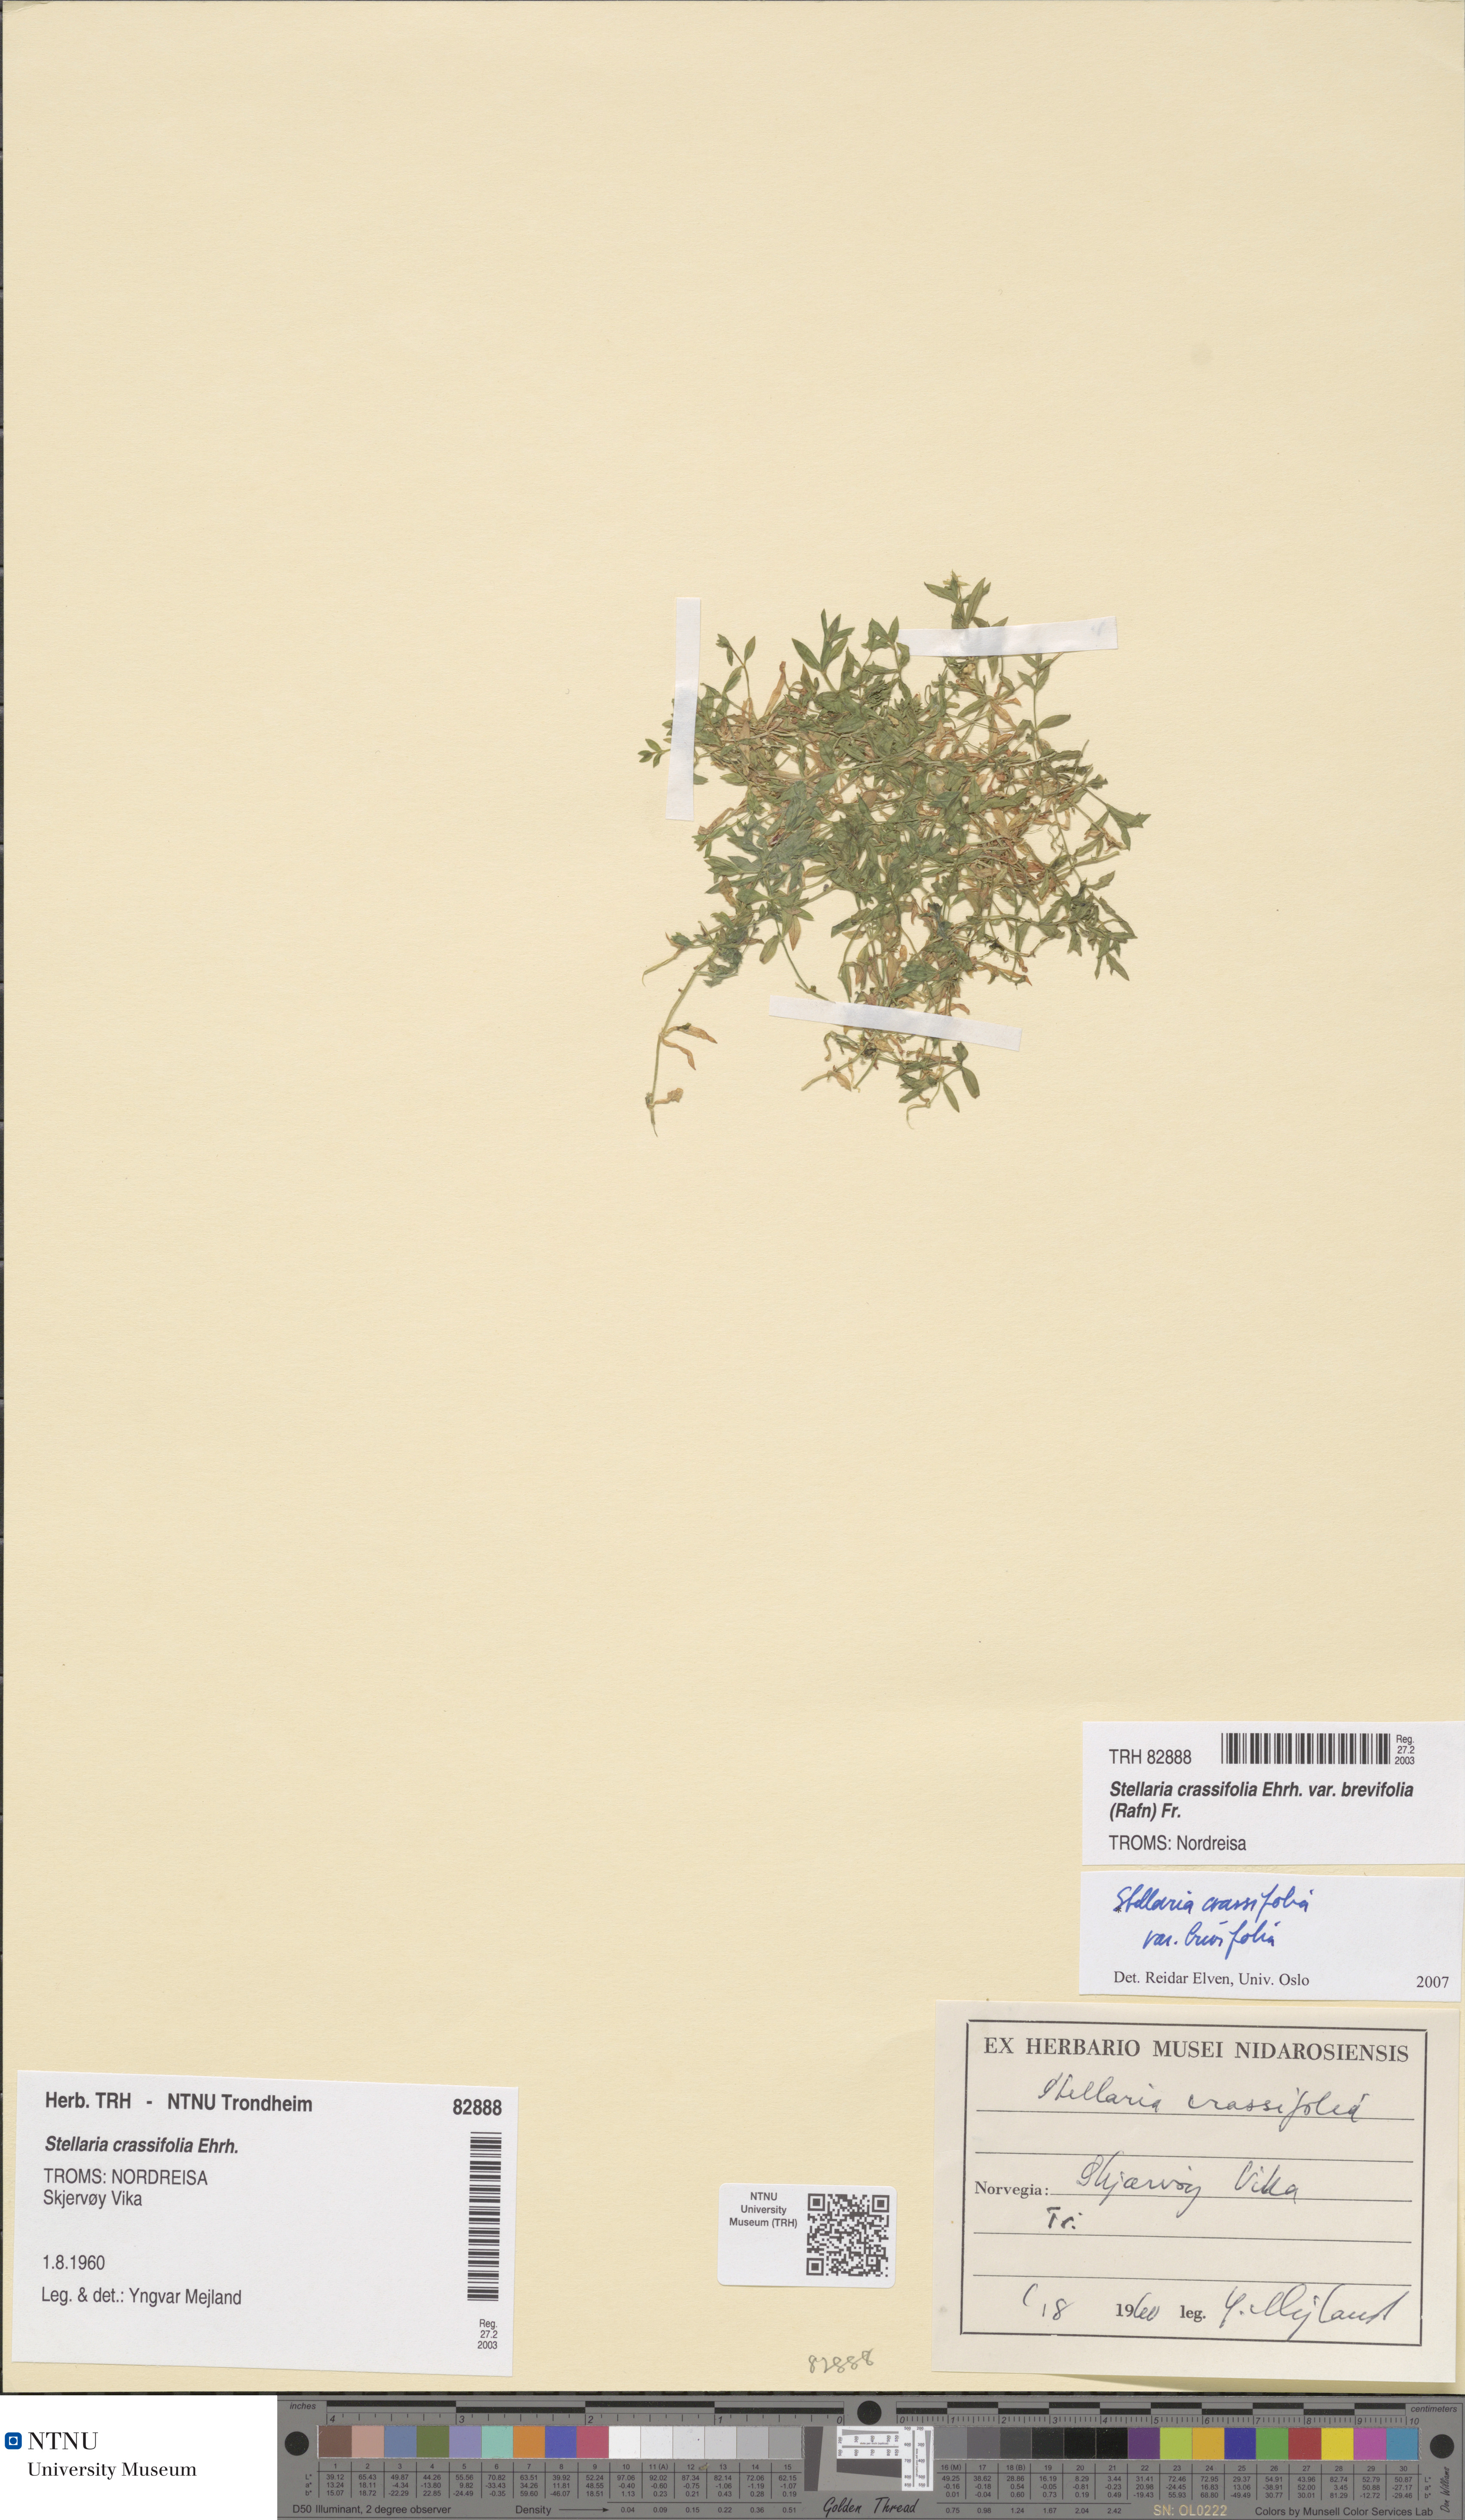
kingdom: Plantae
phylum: Tracheophyta
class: Magnoliopsida
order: Caryophyllales
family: Caryophyllaceae
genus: Stellaria
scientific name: Stellaria crassifolia
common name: Fleshy starwort
